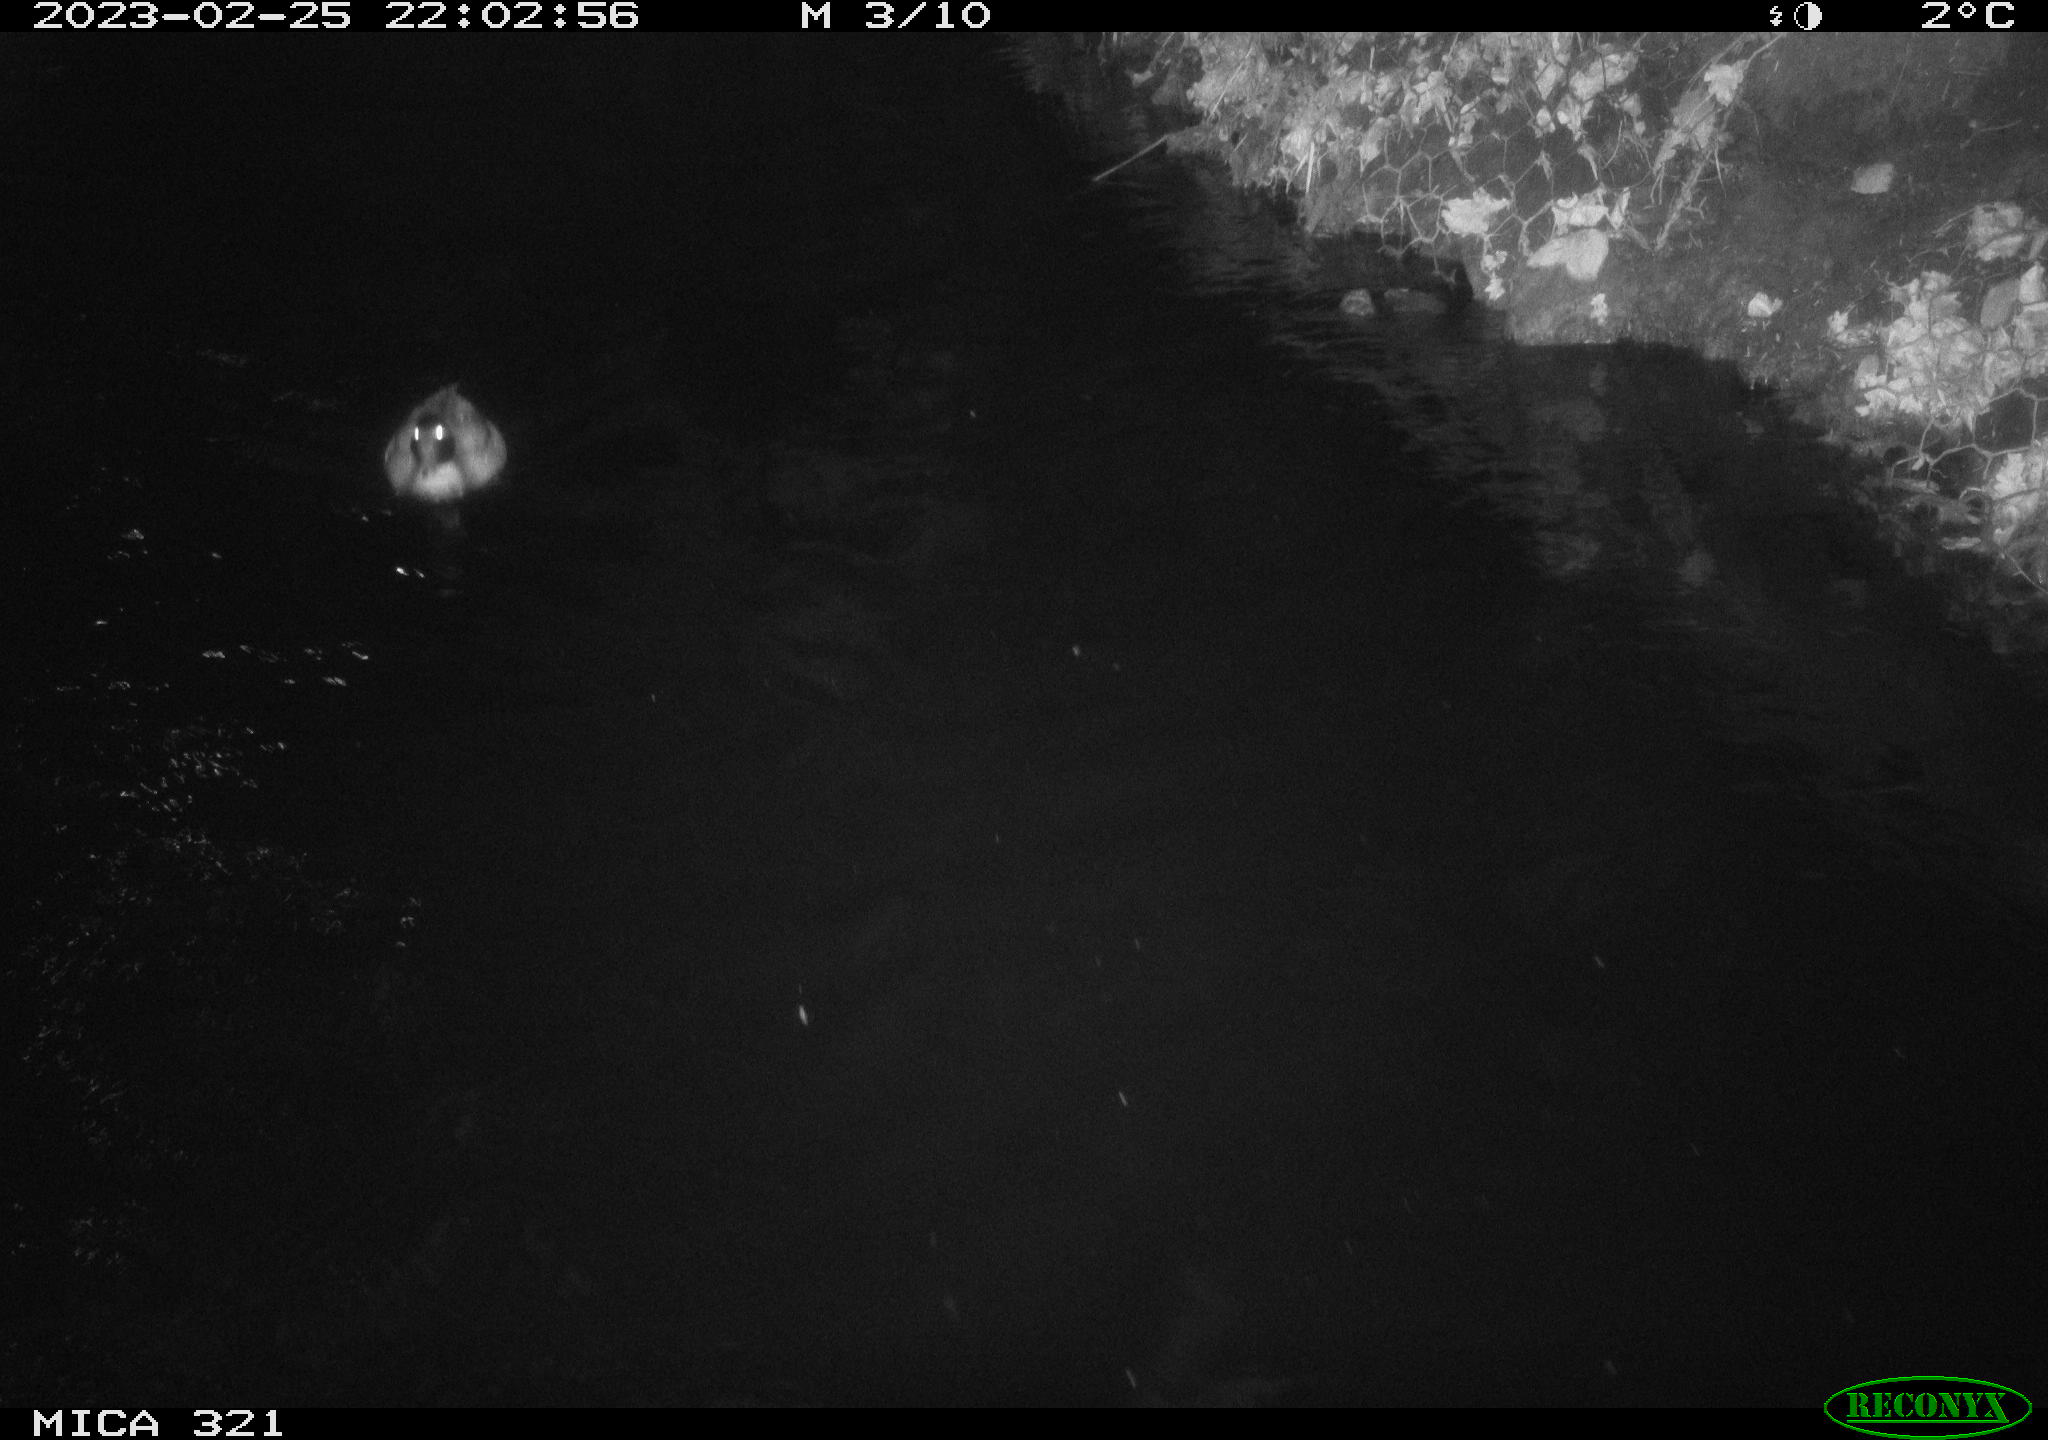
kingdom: Animalia
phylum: Chordata
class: Aves
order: Anseriformes
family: Anatidae
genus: Anas
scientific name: Anas
